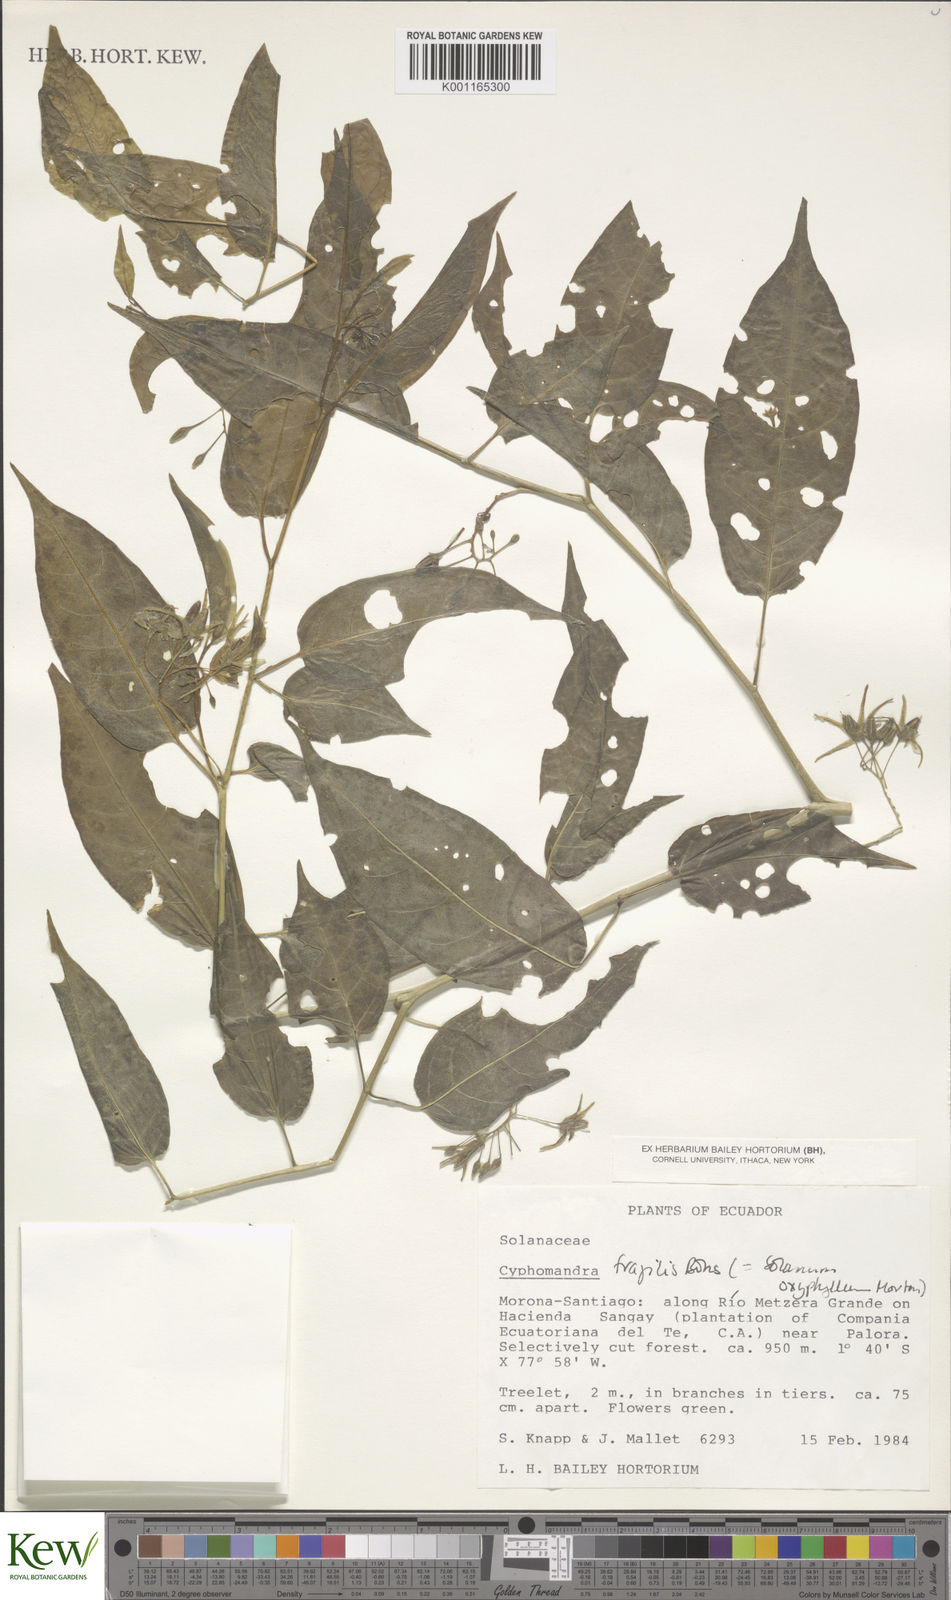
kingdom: Plantae
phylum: Tracheophyta
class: Magnoliopsida
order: Solanales
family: Solanaceae
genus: Solanum
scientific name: Solanum oxyphyllum
